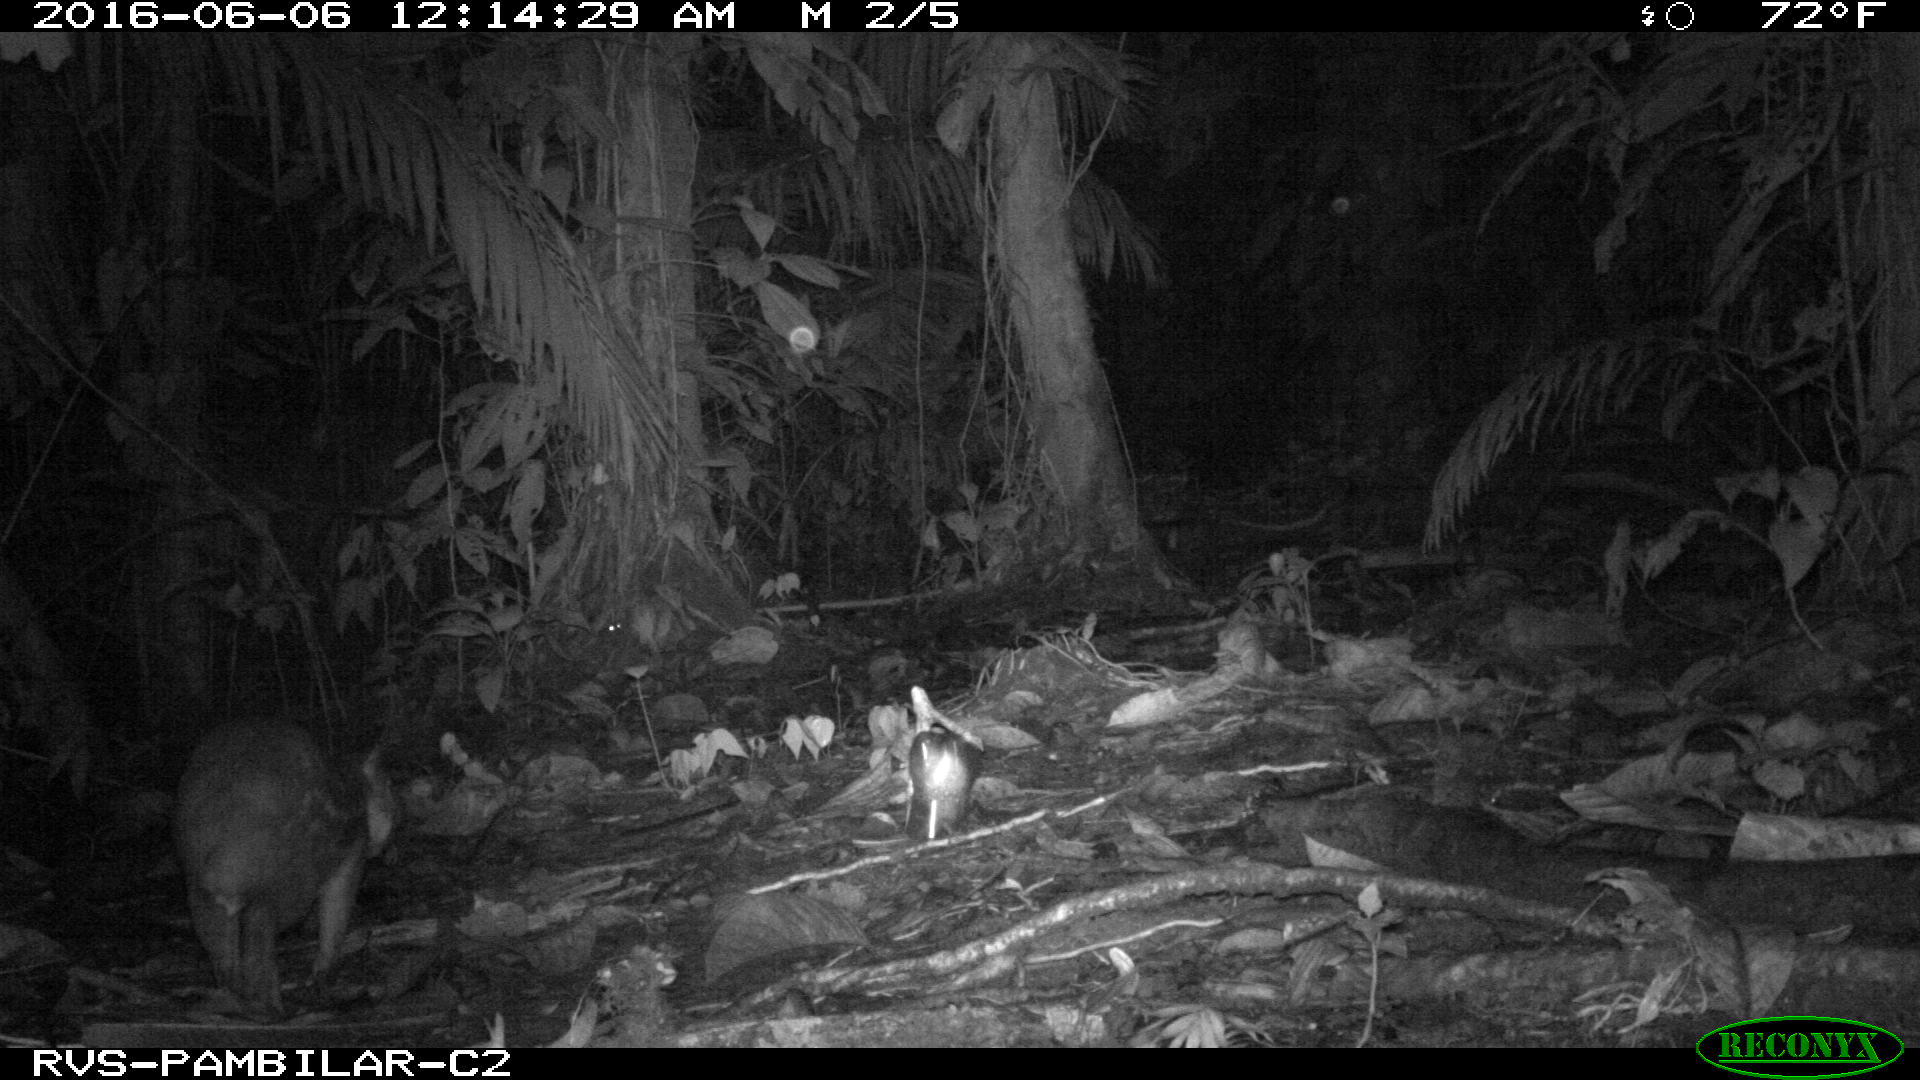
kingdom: Animalia
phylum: Chordata
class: Mammalia
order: Rodentia
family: Cuniculidae
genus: Cuniculus
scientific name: Cuniculus paca
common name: Lowland paca
